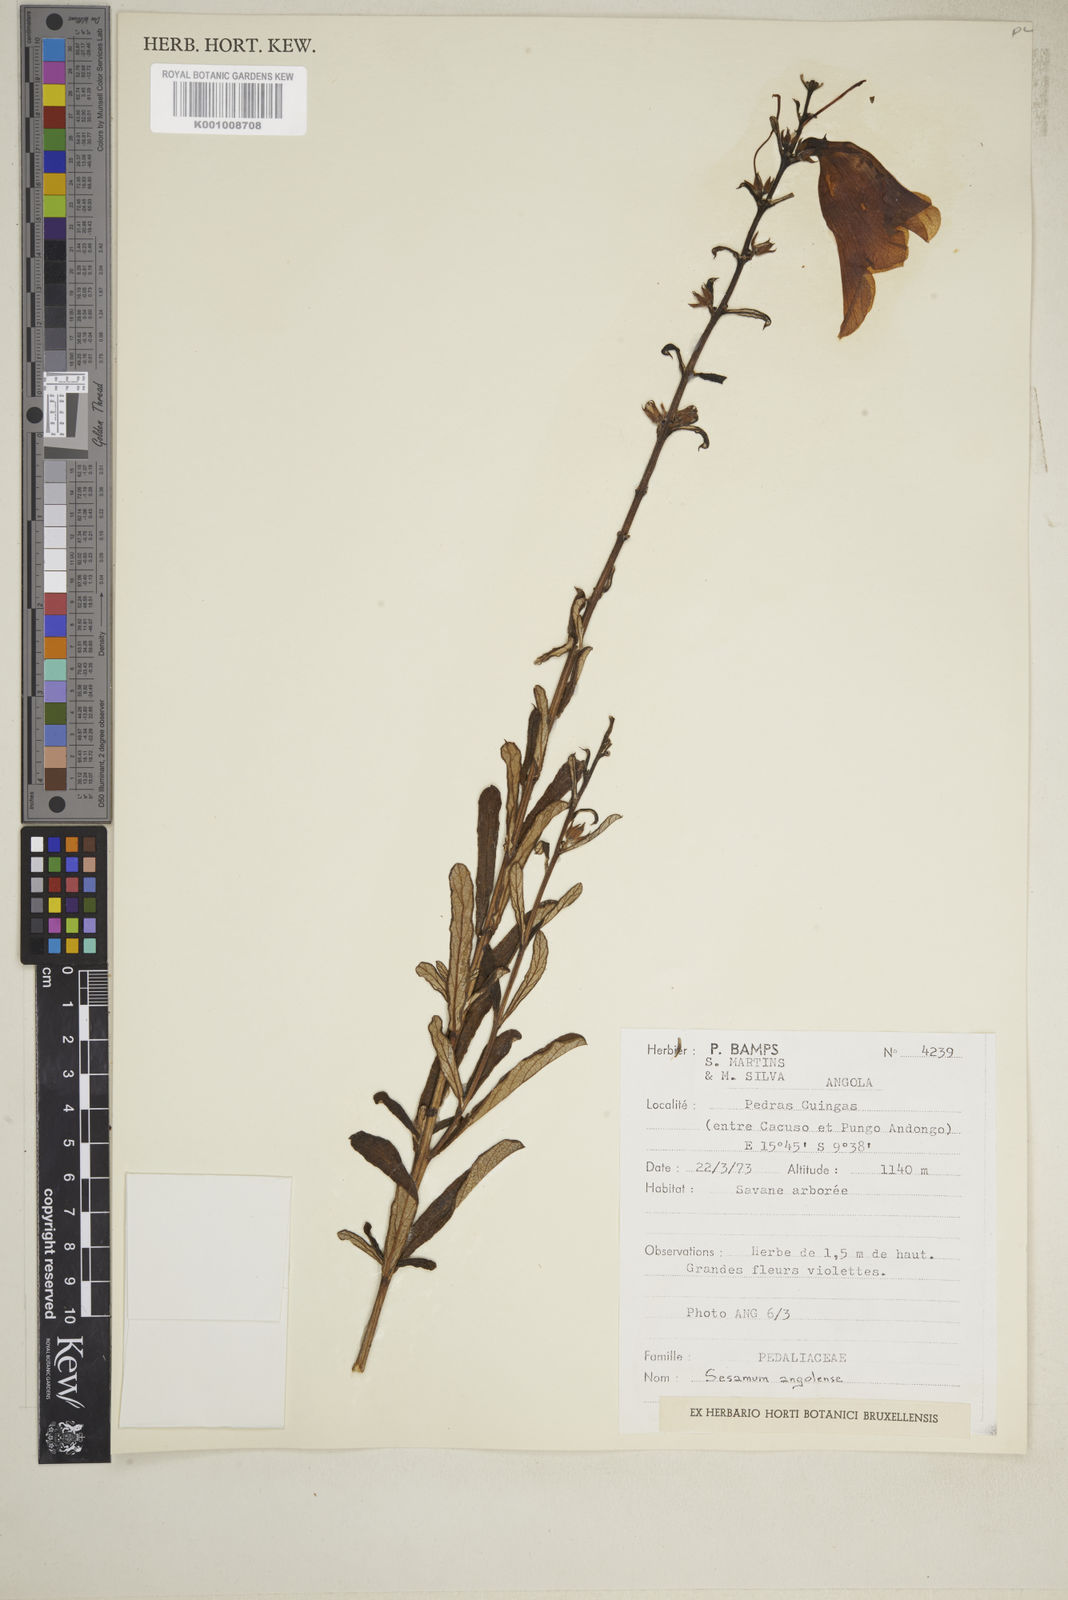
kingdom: Plantae
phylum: Tracheophyta
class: Magnoliopsida
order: Lamiales
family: Pedaliaceae
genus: Sesamum
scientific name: Sesamum angolense
